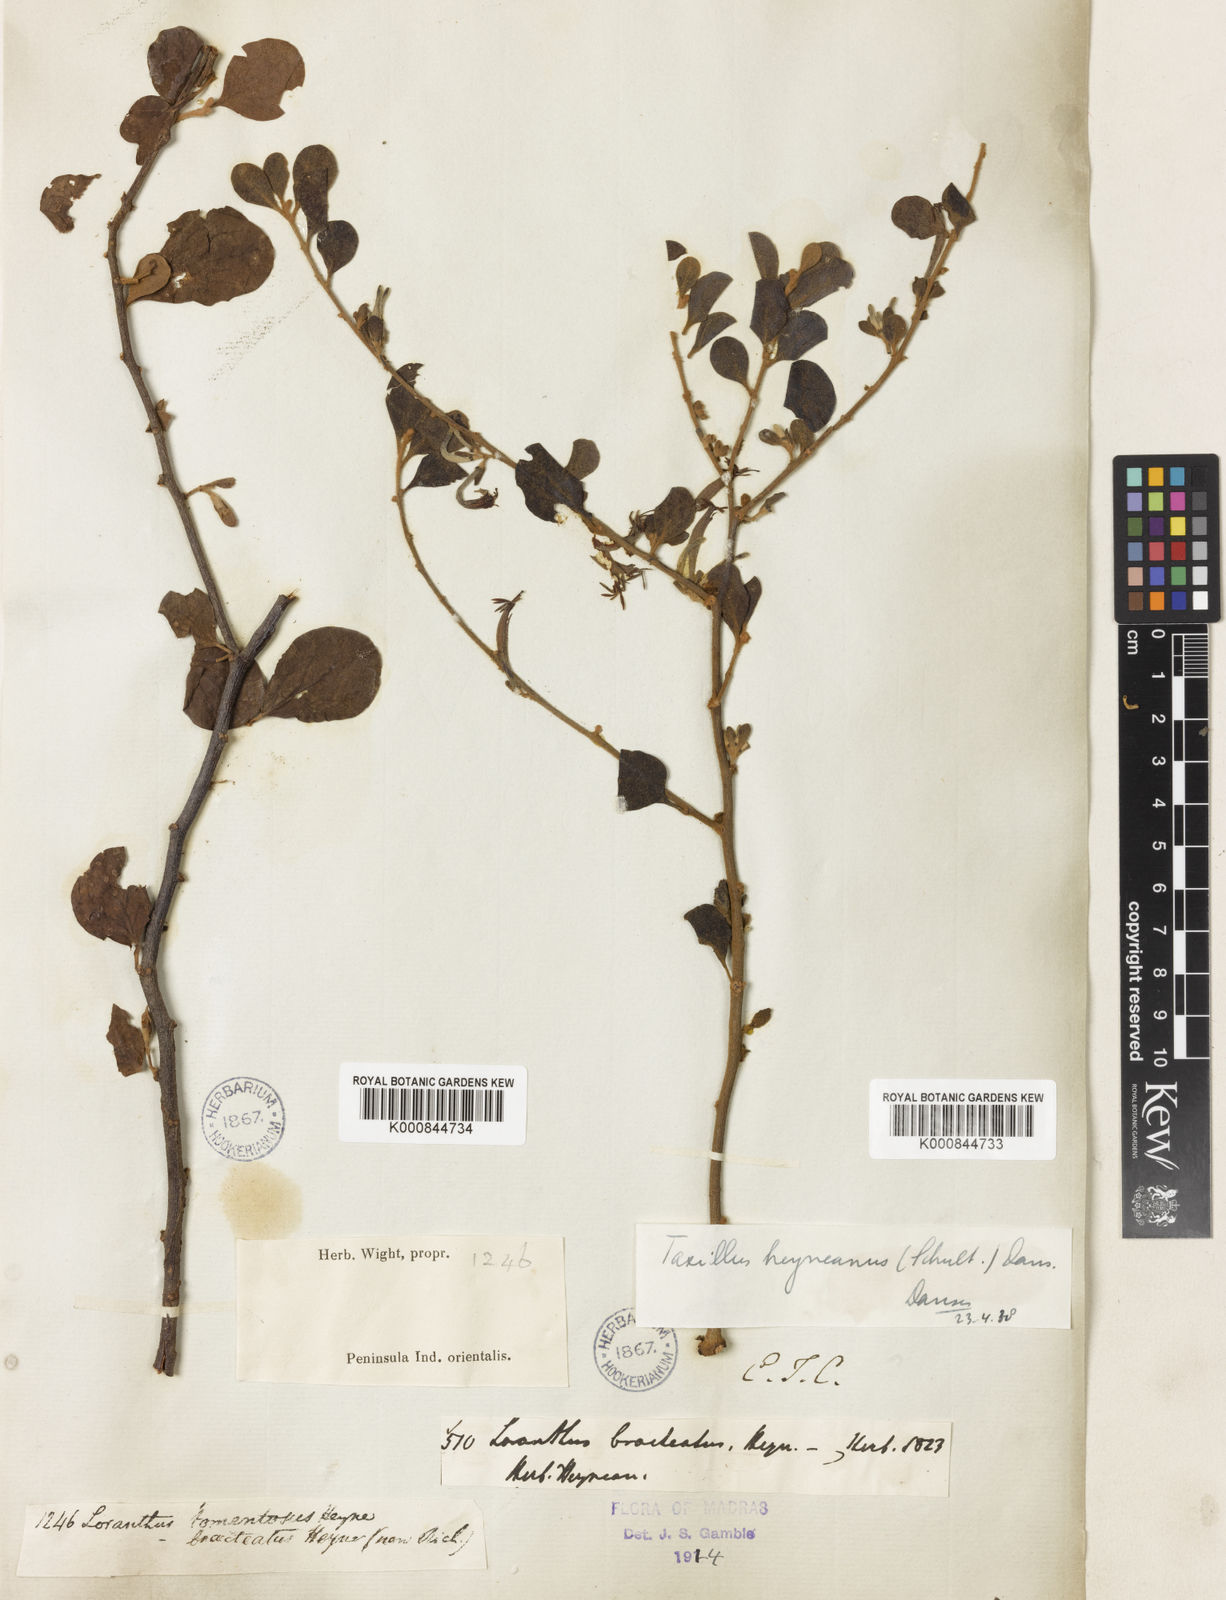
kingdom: Plantae
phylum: Tracheophyta
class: Magnoliopsida
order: Santalales
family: Loranthaceae
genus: Taxillus
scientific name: Taxillus heyneanus
